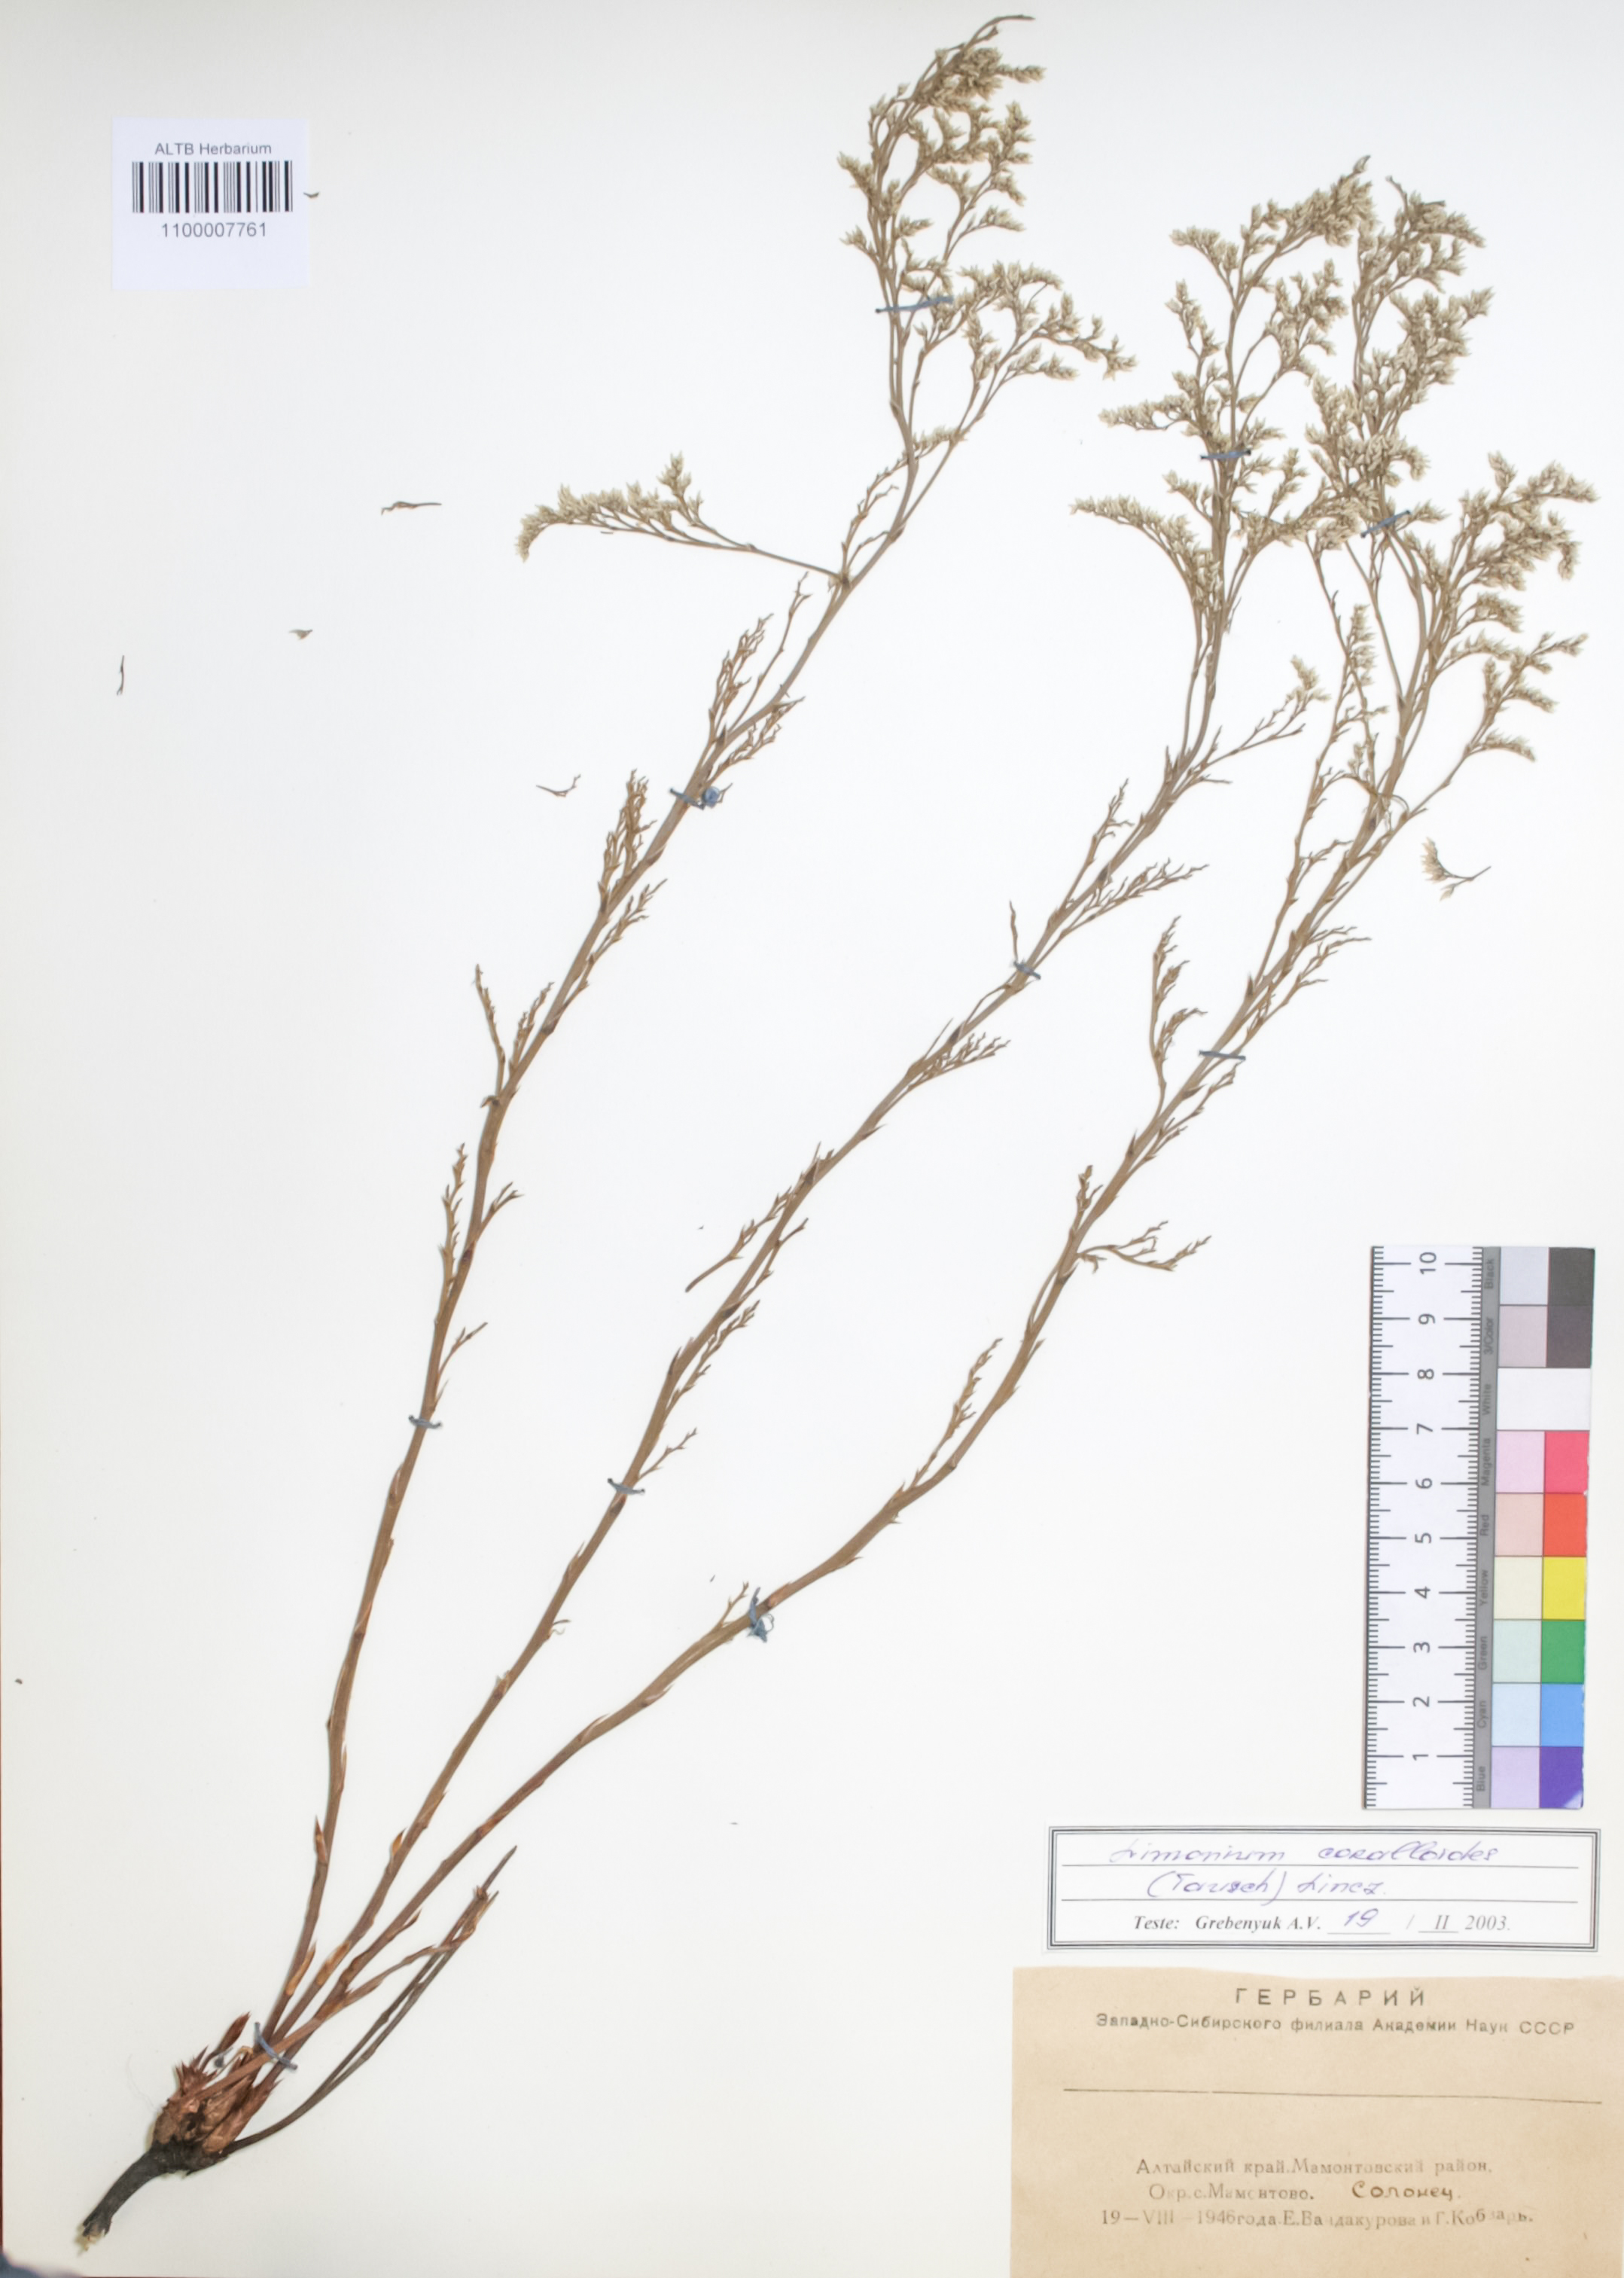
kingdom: Plantae
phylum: Tracheophyta
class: Magnoliopsida
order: Caryophyllales
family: Plumbaginaceae
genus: Limonium
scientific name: Limonium coralloides
